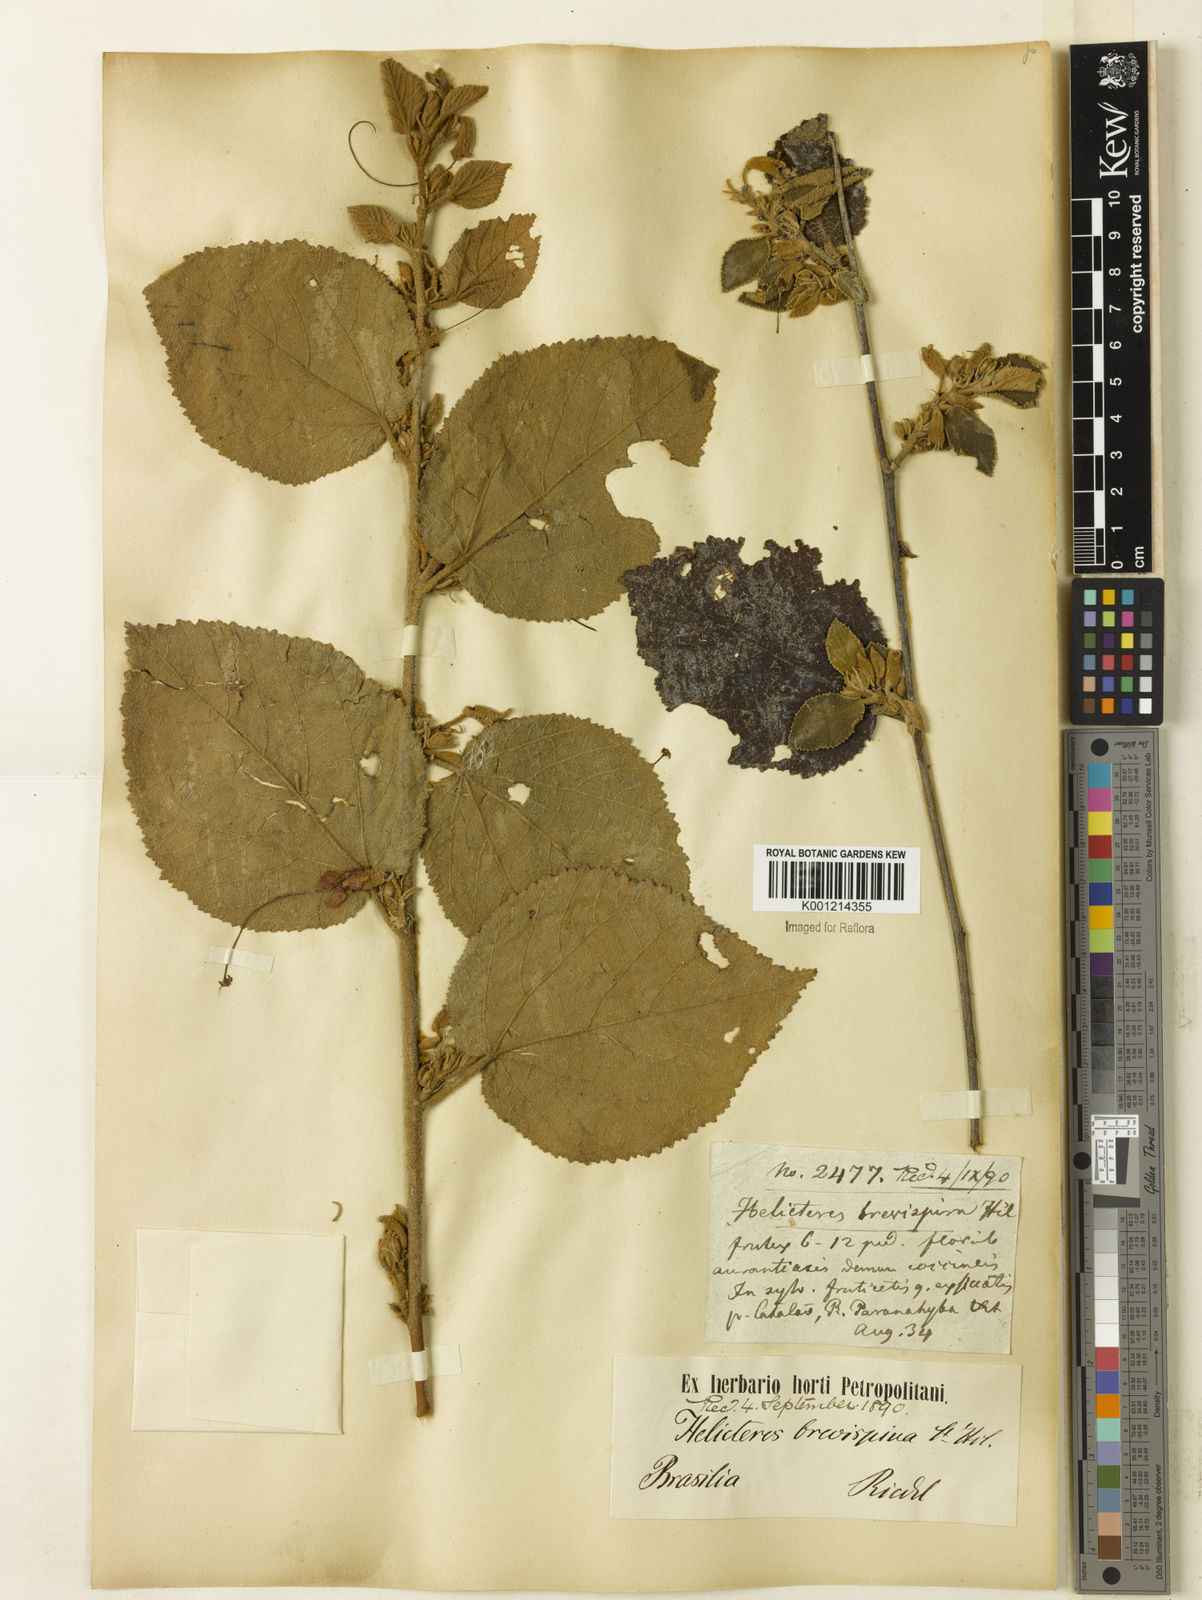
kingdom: Plantae
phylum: Tracheophyta
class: Magnoliopsida
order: Malvales
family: Malvaceae
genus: Helicteres
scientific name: Helicteres
